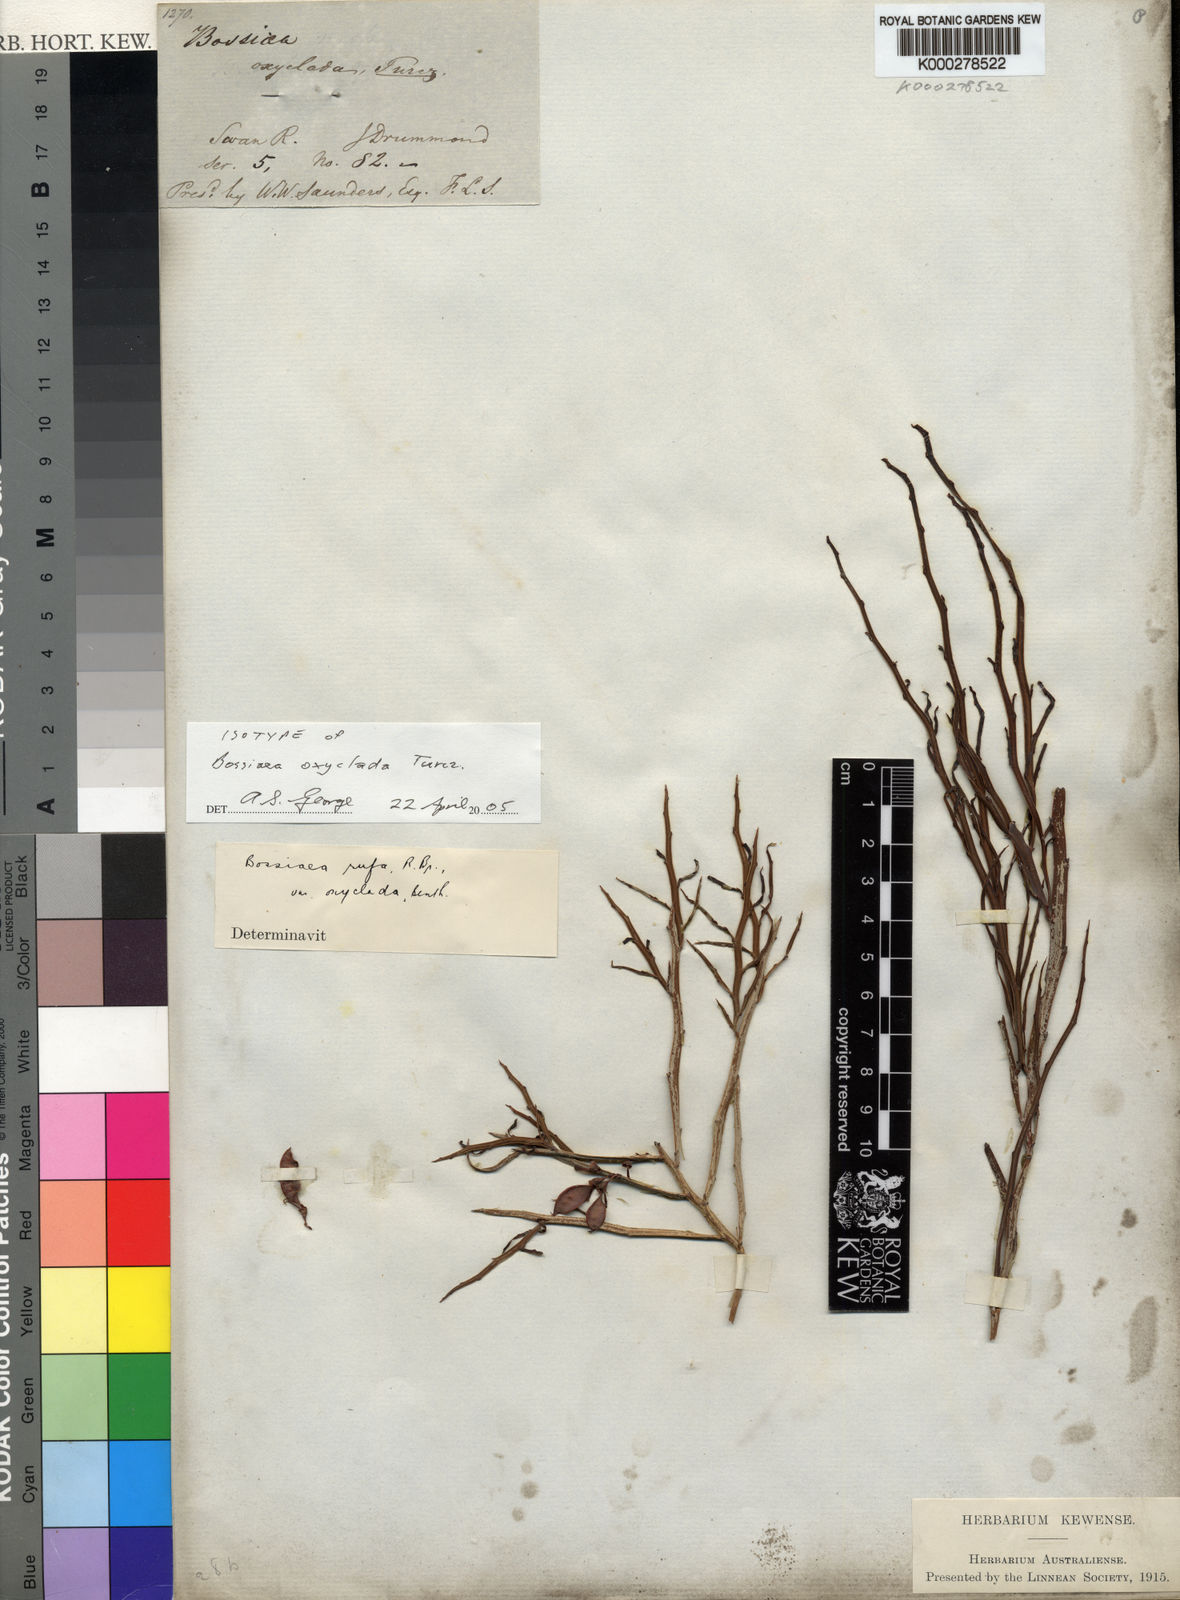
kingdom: Plantae
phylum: Tracheophyta
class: Magnoliopsida
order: Fabales
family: Fabaceae
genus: Bossiaea
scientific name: Bossiaea oxyclada
